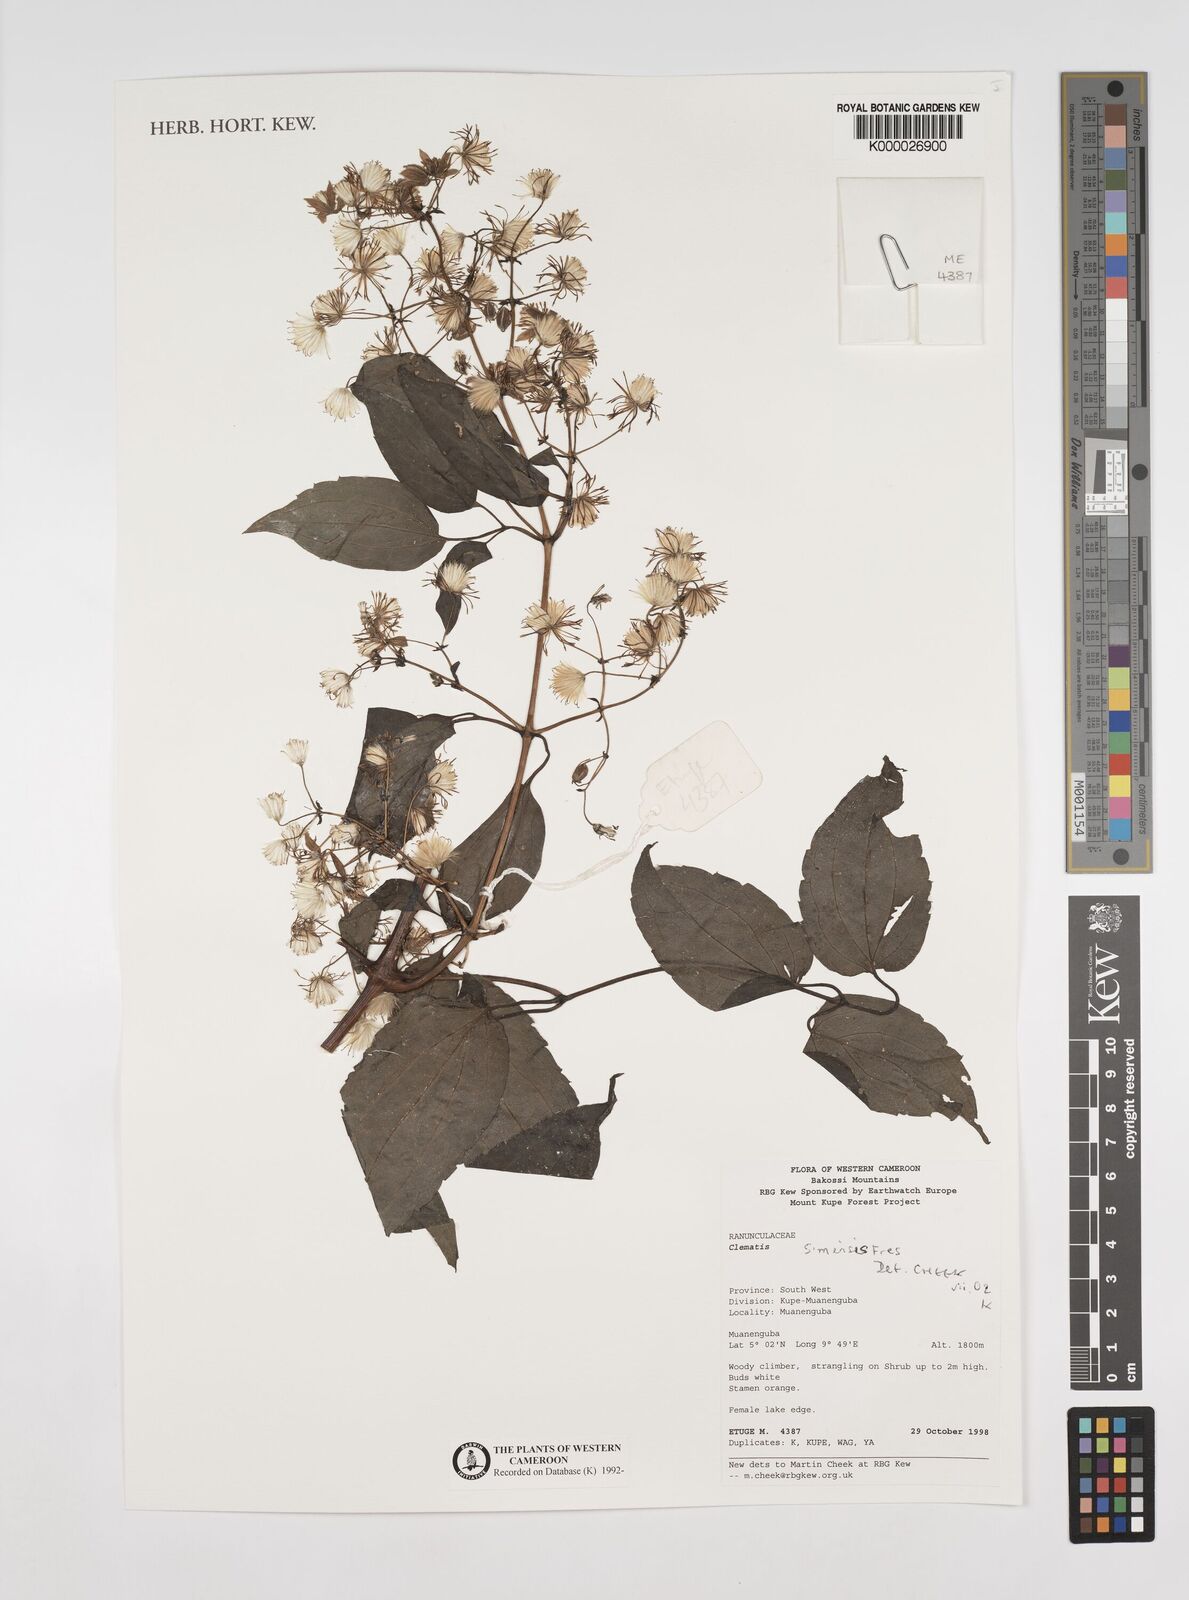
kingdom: Plantae
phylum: Tracheophyta
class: Magnoliopsida
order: Ranunculales
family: Ranunculaceae
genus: Clematis
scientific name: Clematis simensis
